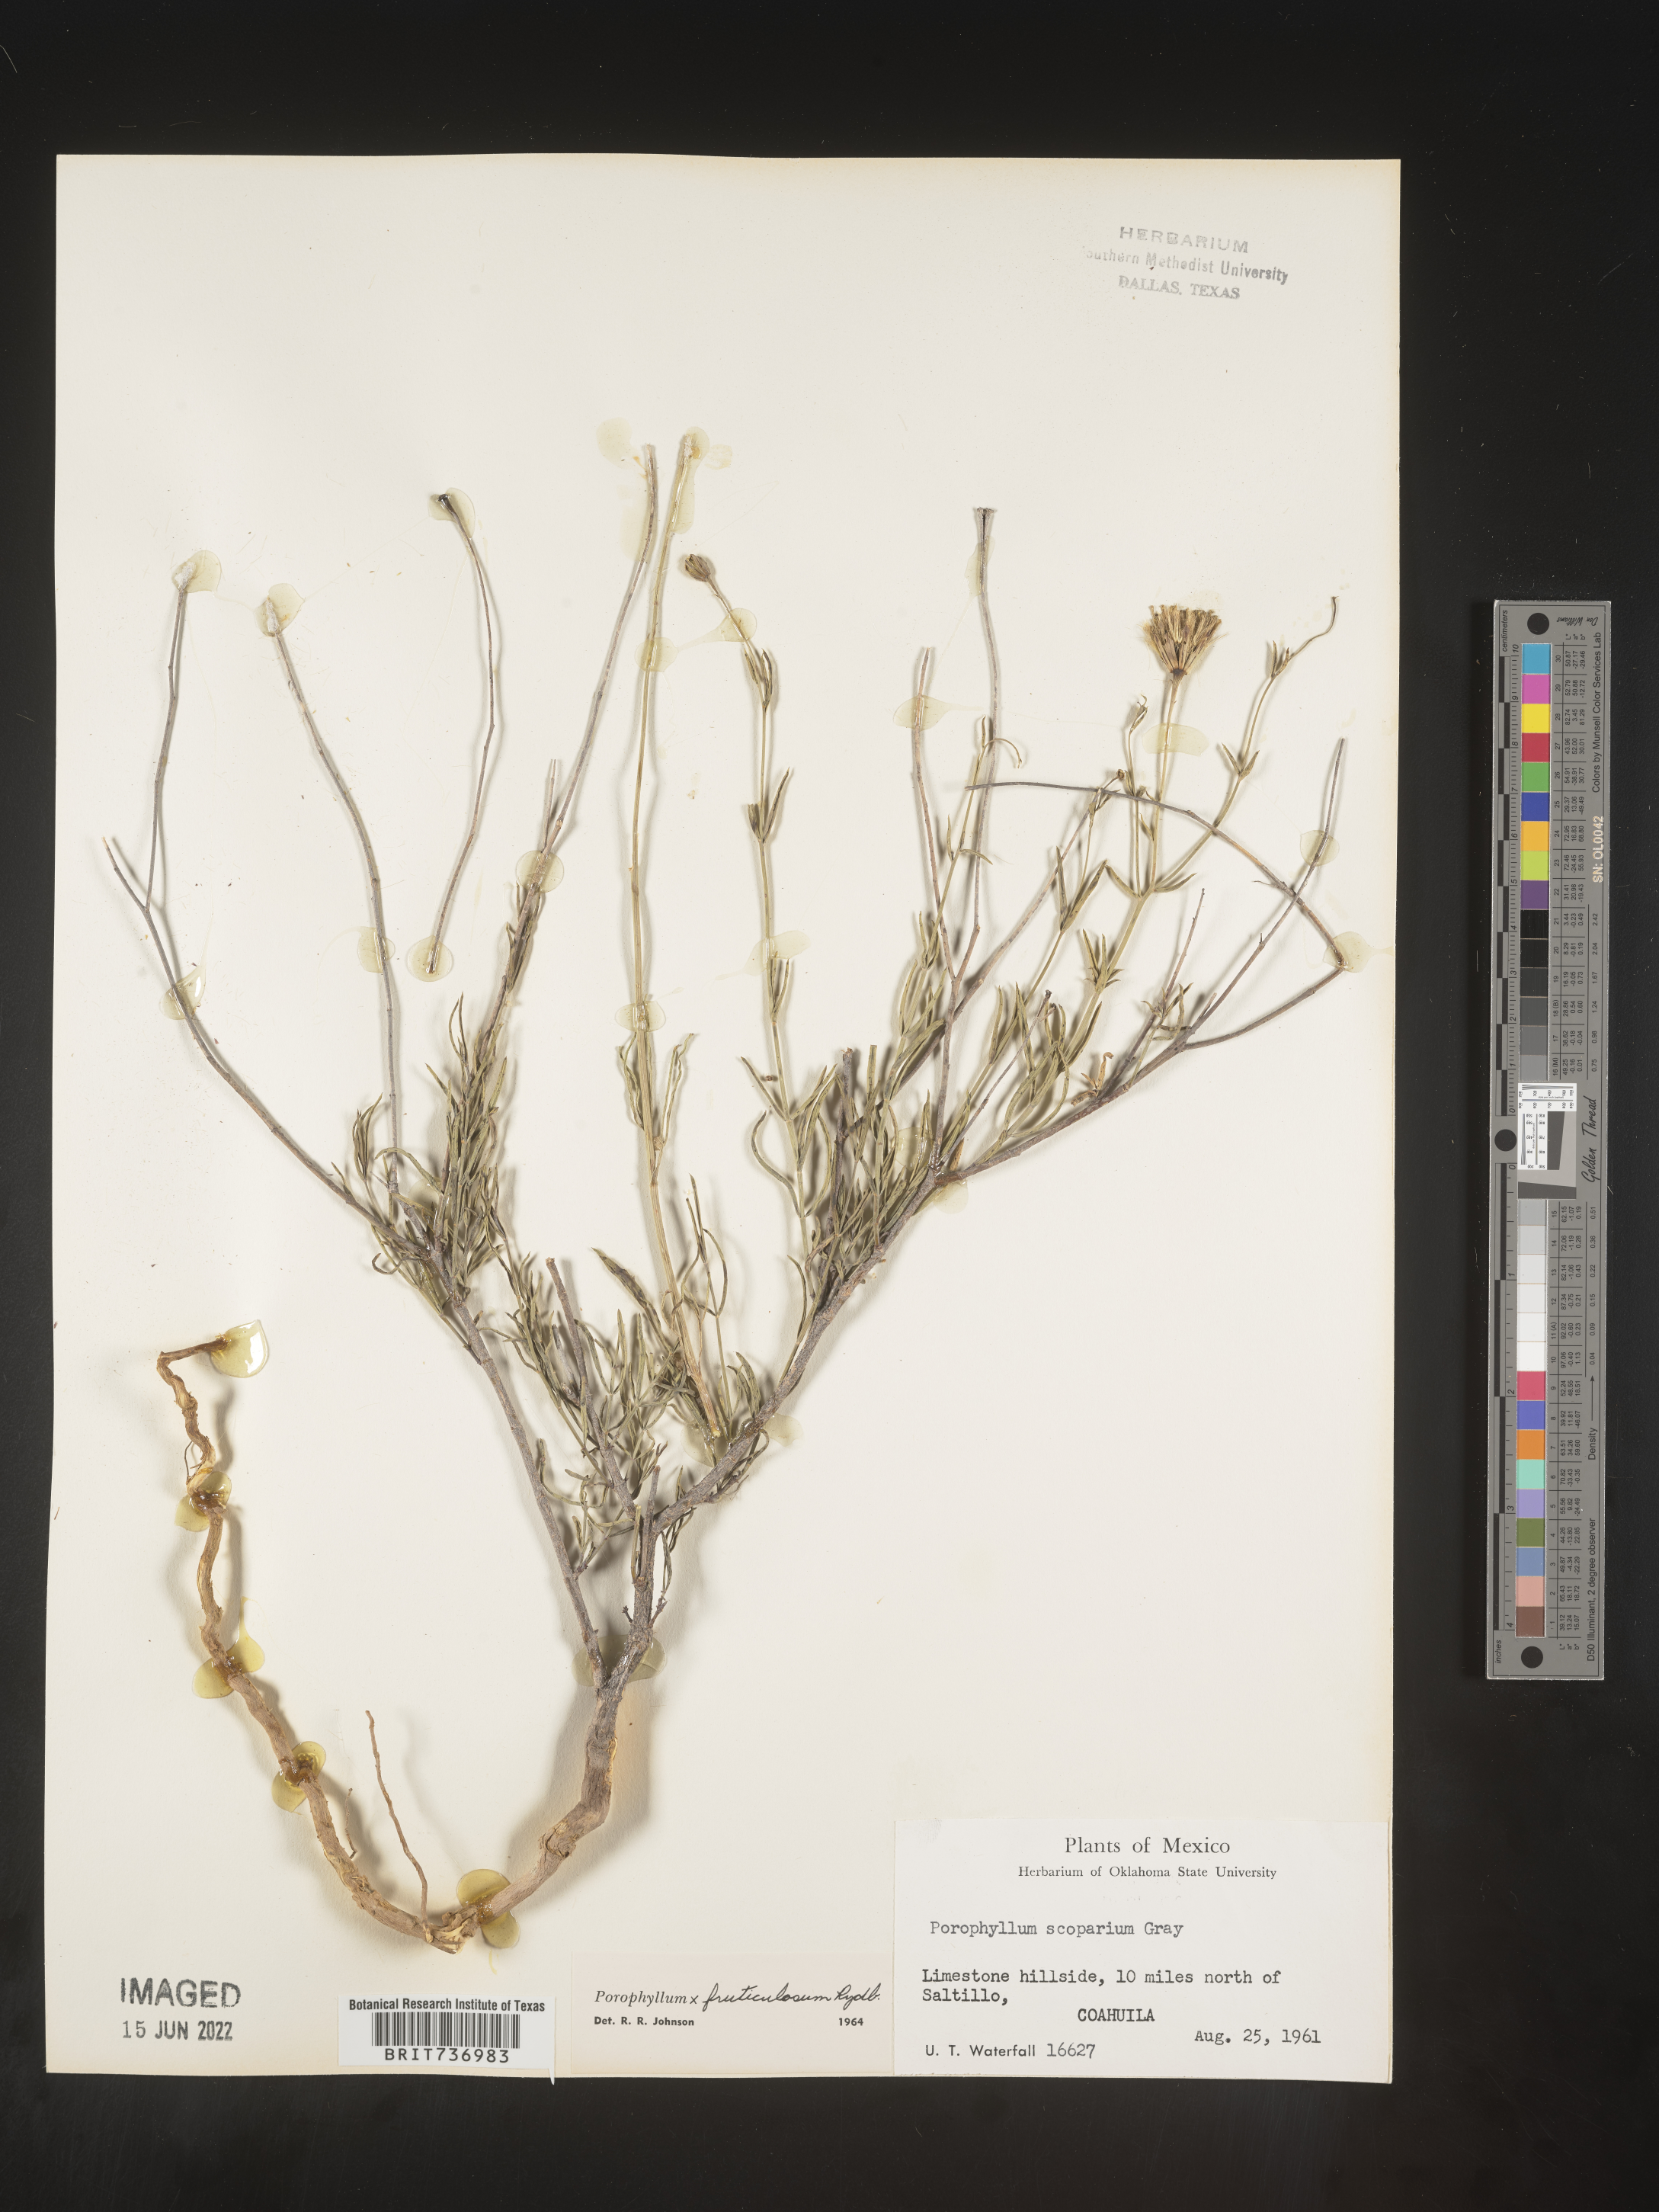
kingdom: Plantae
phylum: Tracheophyta
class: Magnoliopsida
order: Asterales
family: Asteraceae
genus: Porophyllum
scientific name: Porophyllum
